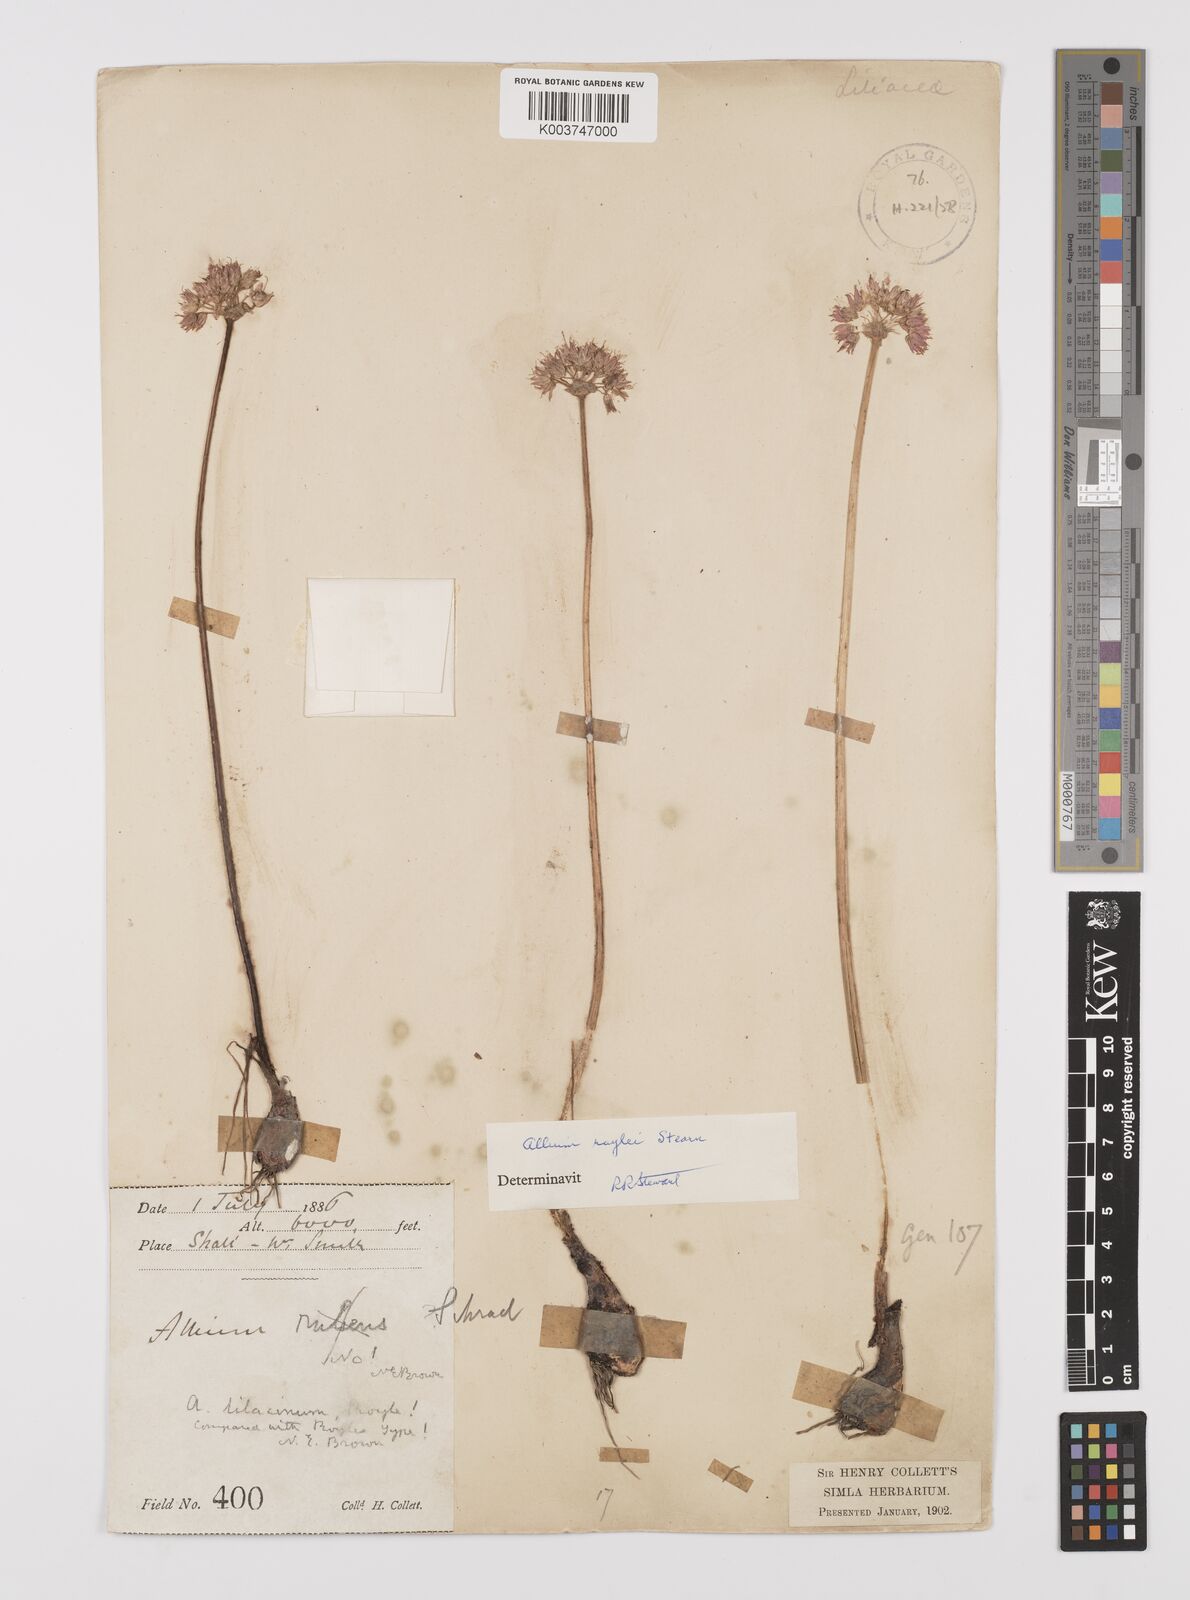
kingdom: Plantae
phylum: Tracheophyta
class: Liliopsida
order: Asparagales
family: Amaryllidaceae
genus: Allium
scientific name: Allium roylei
